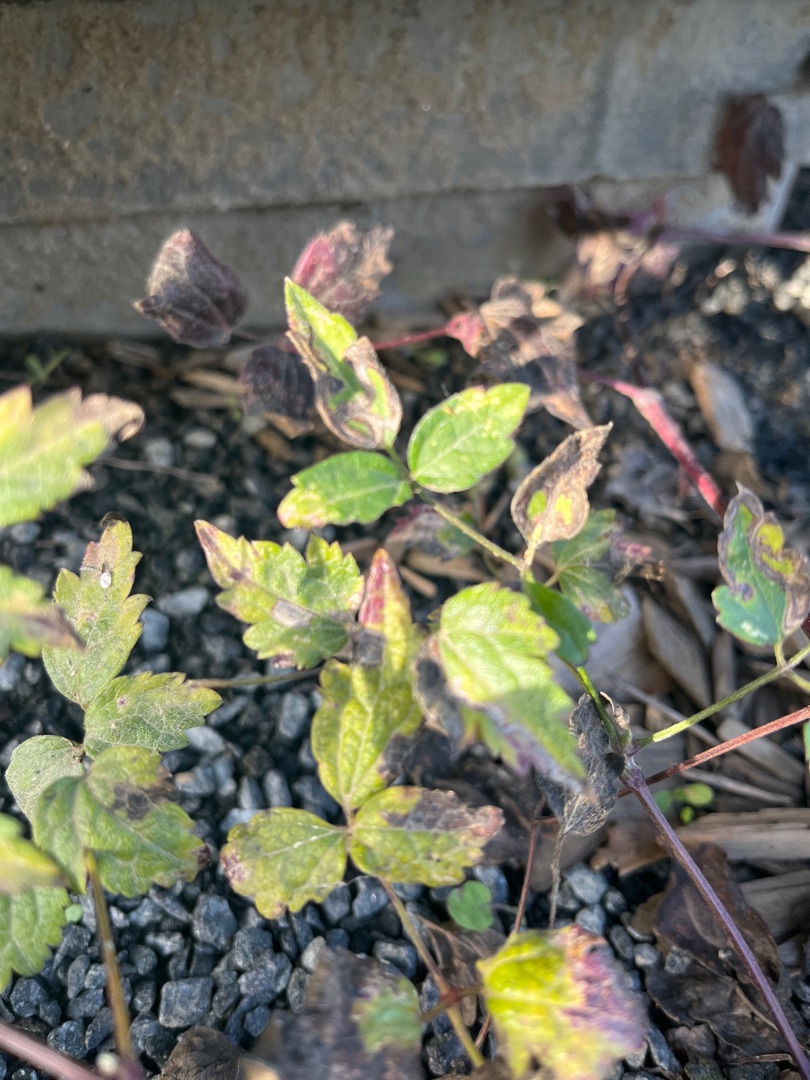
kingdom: Plantae
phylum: Tracheophyta
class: Magnoliopsida
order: Ranunculales
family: Ranunculaceae
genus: Clematis
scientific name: Clematis vitalba
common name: Skovranke
